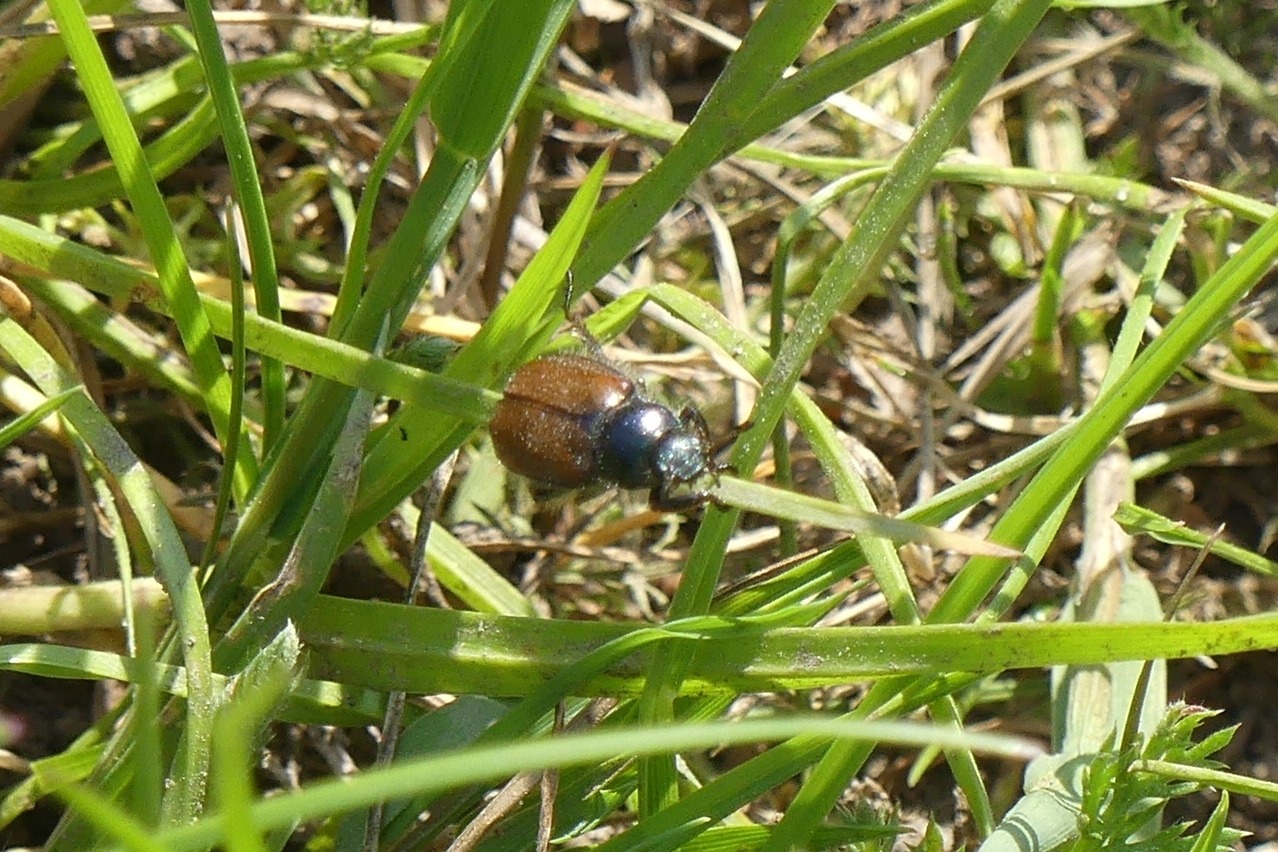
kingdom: Animalia
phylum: Arthropoda
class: Insecta
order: Coleoptera
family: Scarabaeidae
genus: Phyllopertha
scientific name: Phyllopertha horticola
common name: Gåsebille
